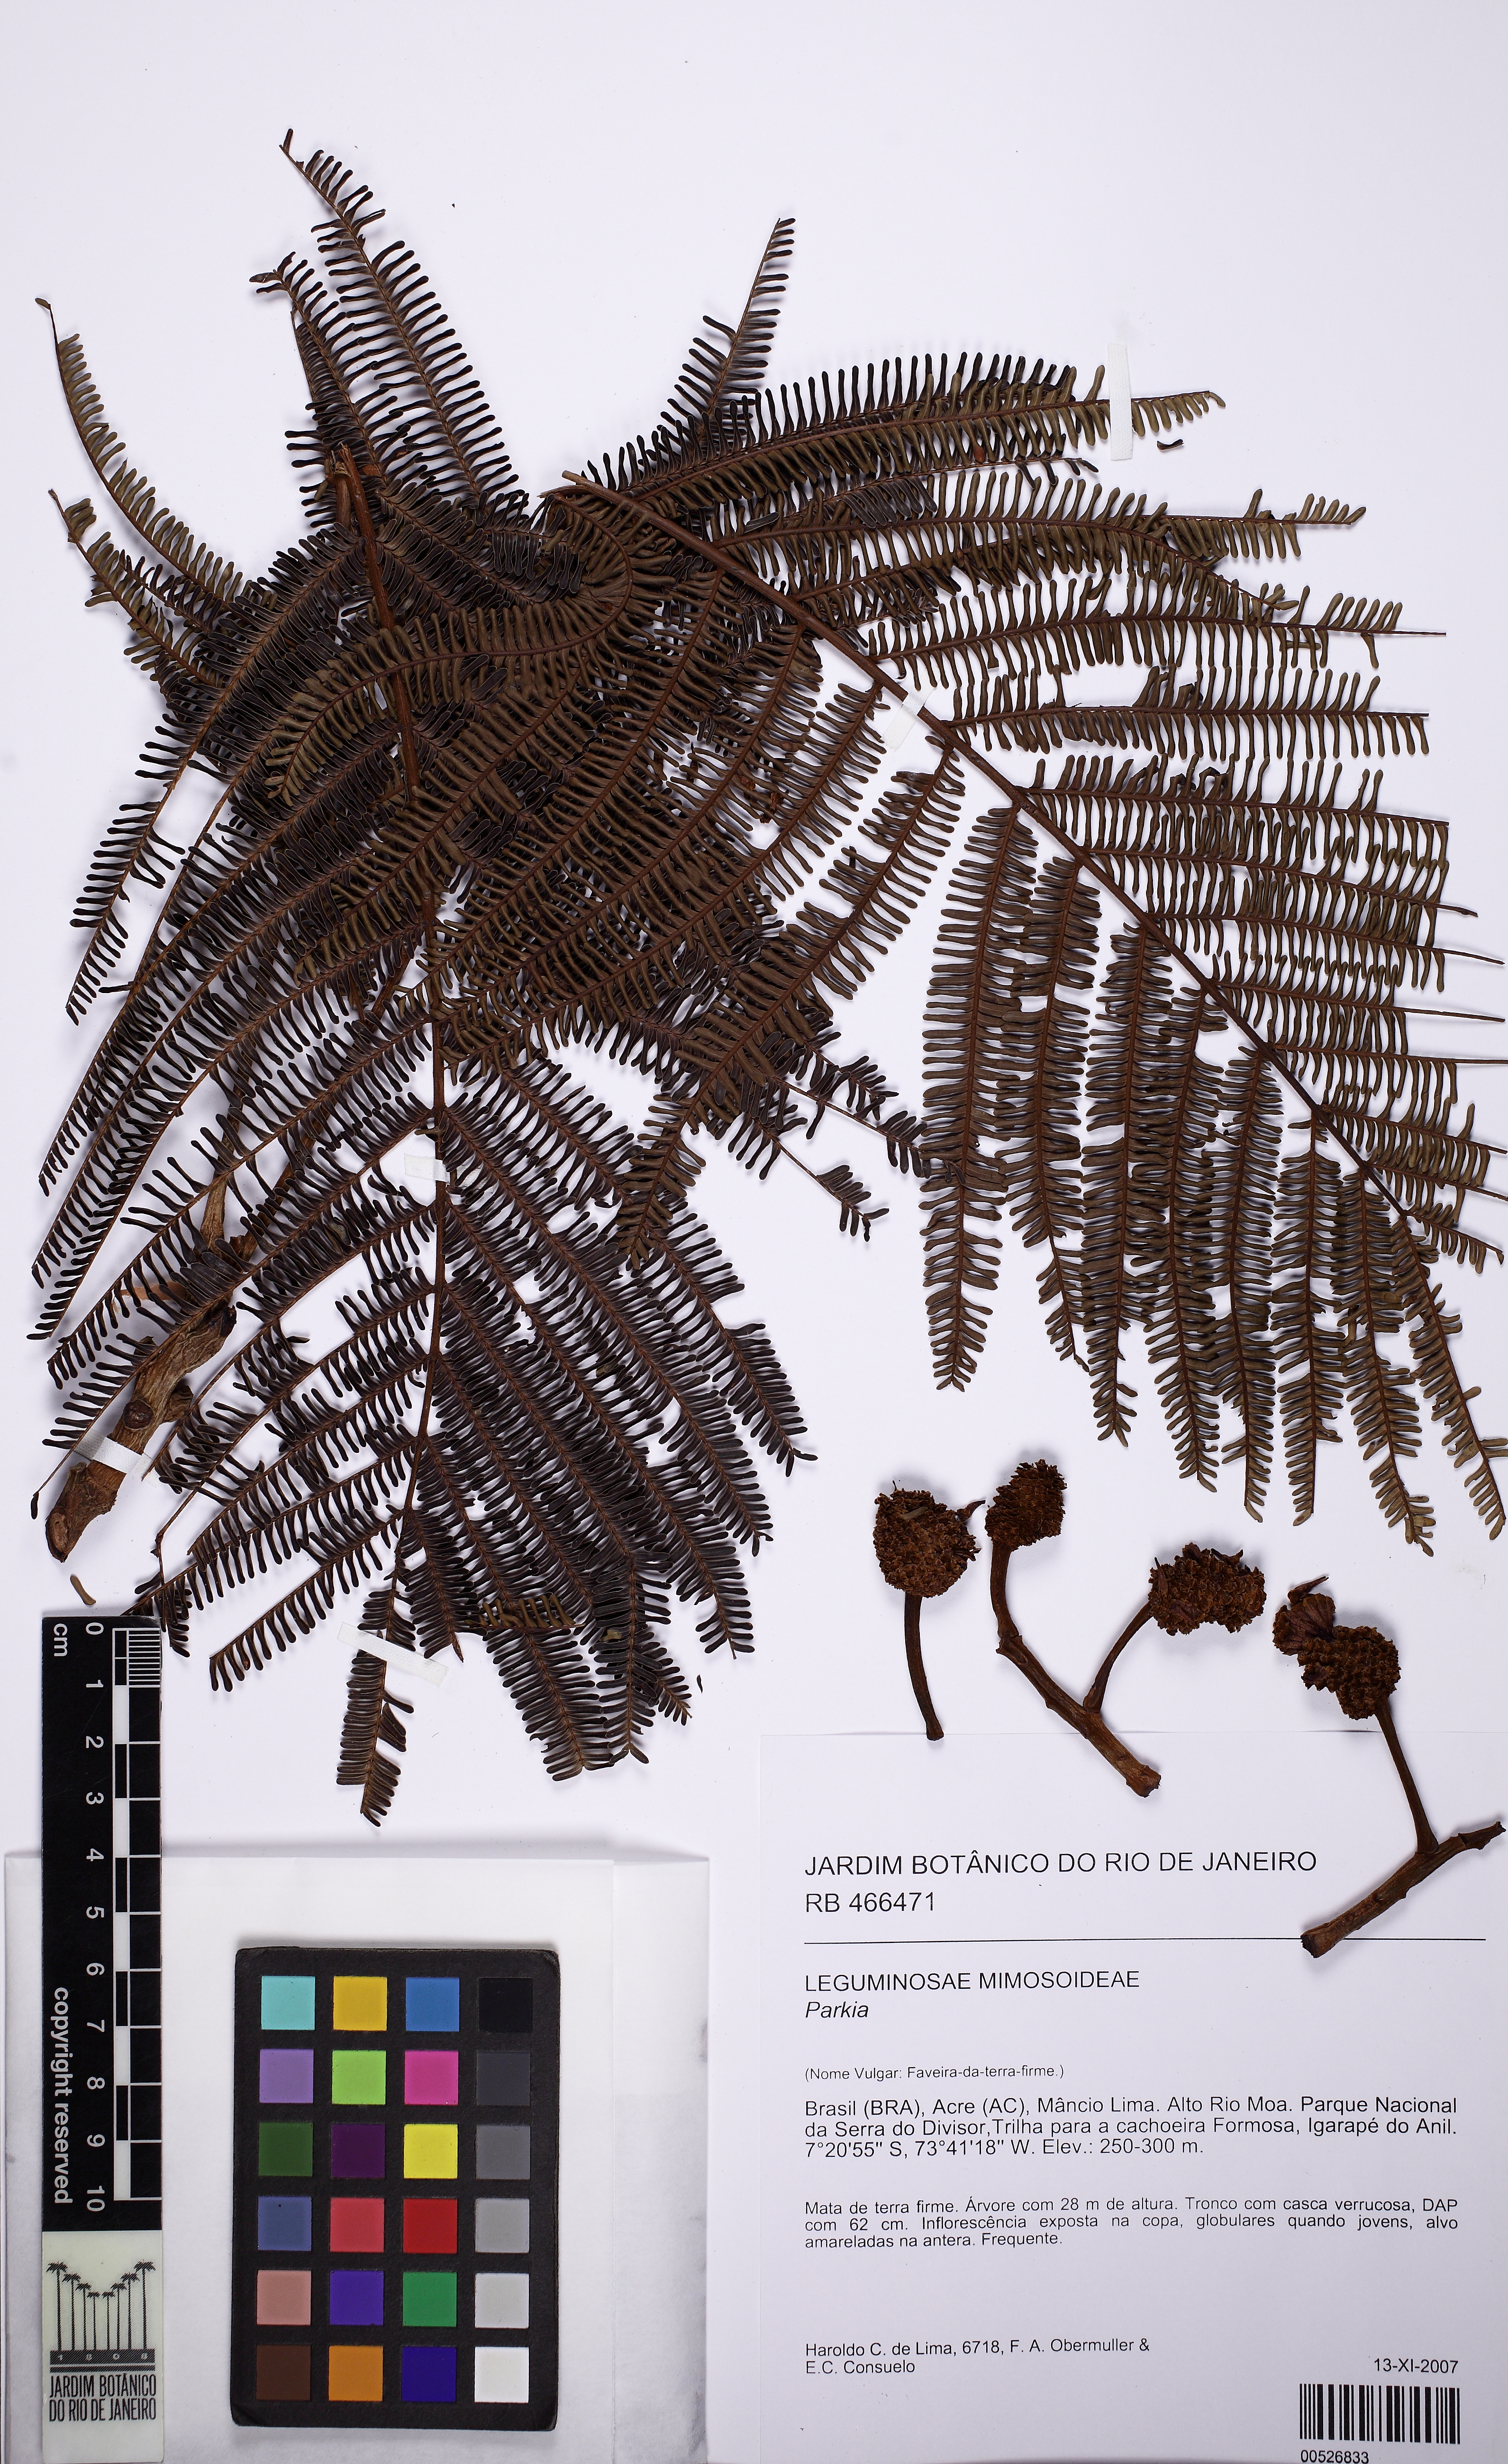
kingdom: Plantae
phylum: Tracheophyta
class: Magnoliopsida
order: Fabales
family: Fabaceae
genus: Parkia
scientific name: Parkia multijuga
